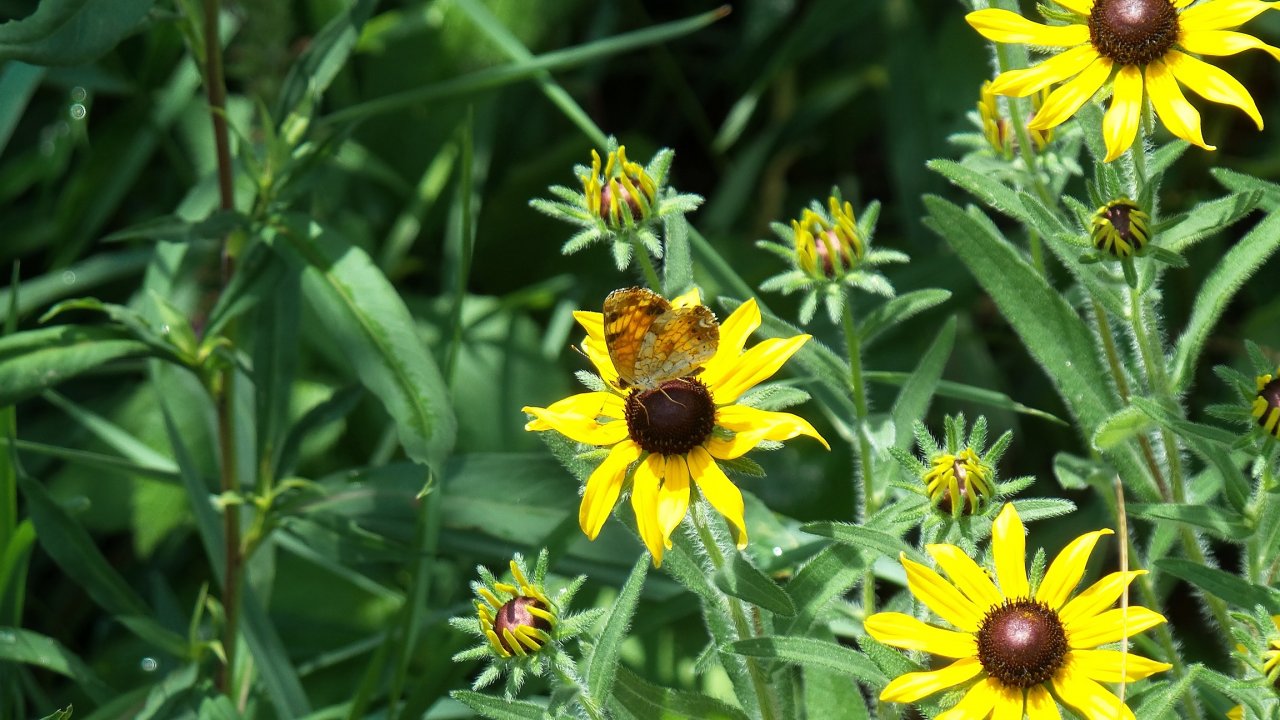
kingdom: Animalia
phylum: Arthropoda
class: Insecta
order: Lepidoptera
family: Nymphalidae
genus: Phyciodes
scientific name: Phyciodes tharos
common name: Northern Crescent
